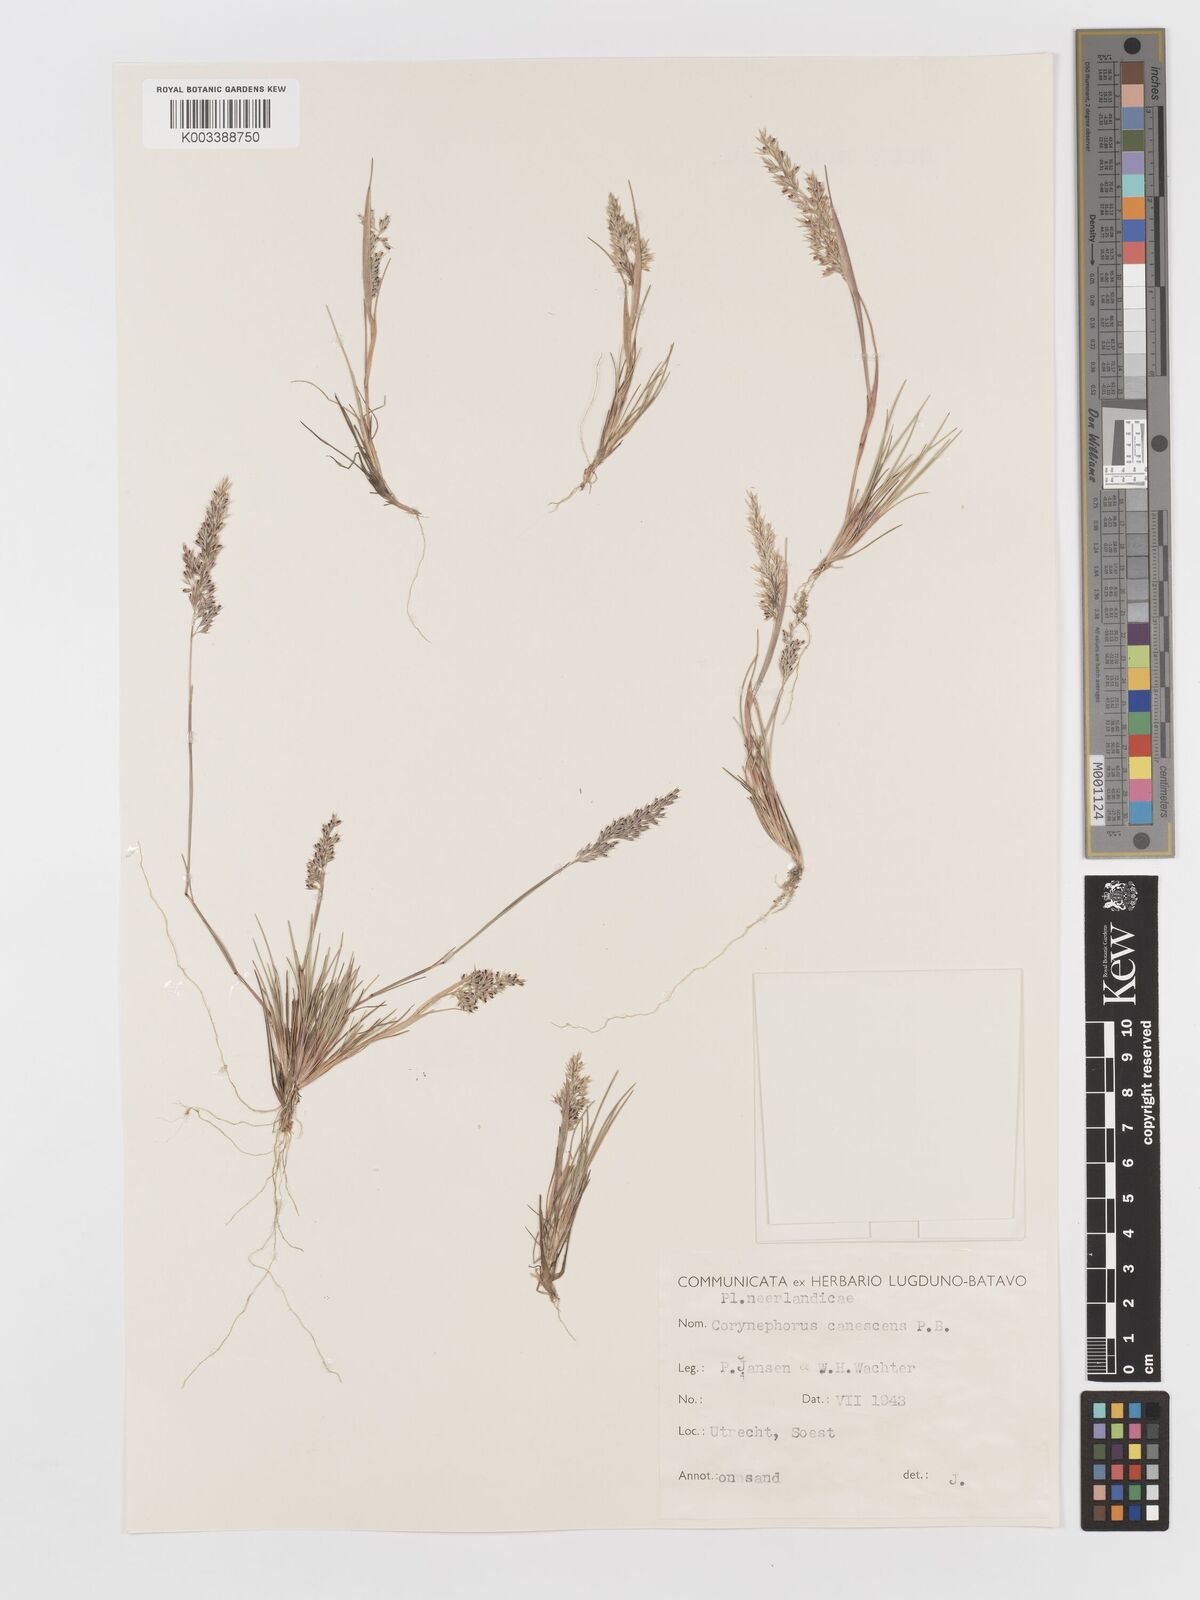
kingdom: Plantae
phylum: Tracheophyta
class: Liliopsida
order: Poales
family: Poaceae
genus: Corynephorus
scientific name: Corynephorus canescens
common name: Grey hair-grass
